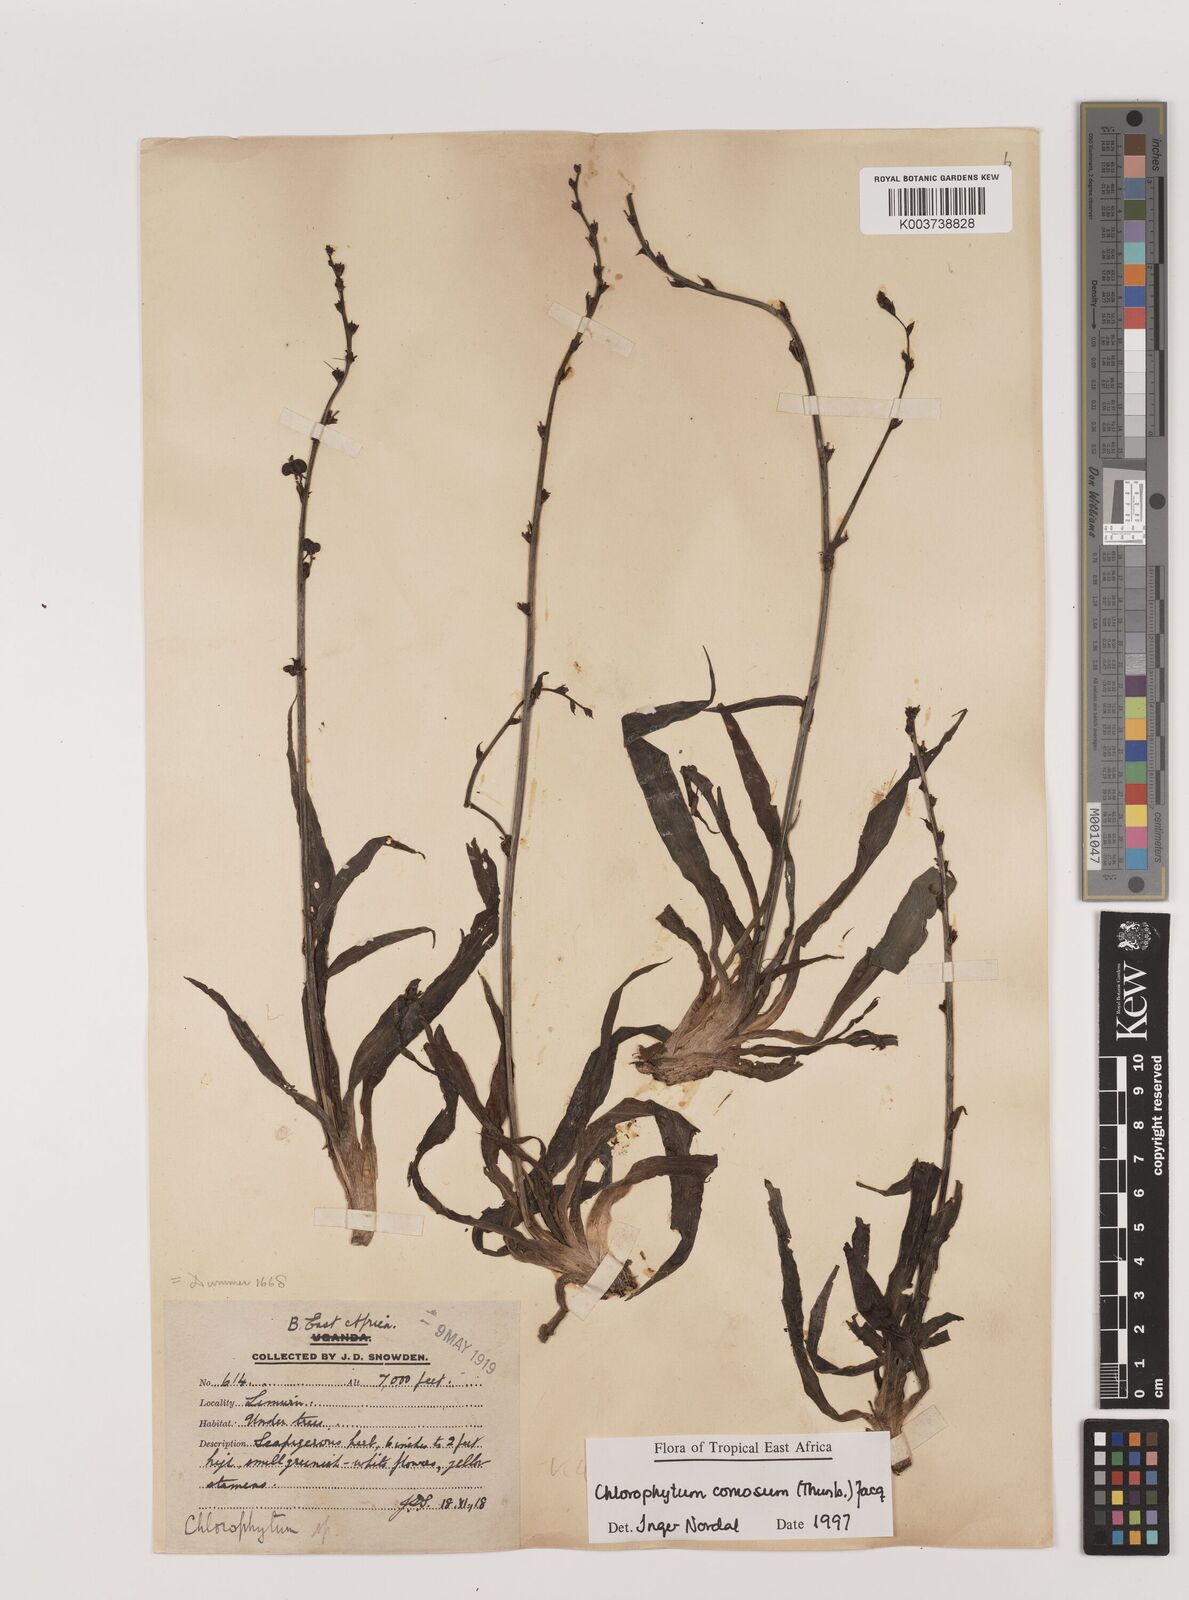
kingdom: Plantae
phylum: Tracheophyta
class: Liliopsida
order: Asparagales
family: Asparagaceae
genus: Chlorophytum
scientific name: Chlorophytum comosum
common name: Spider plant
